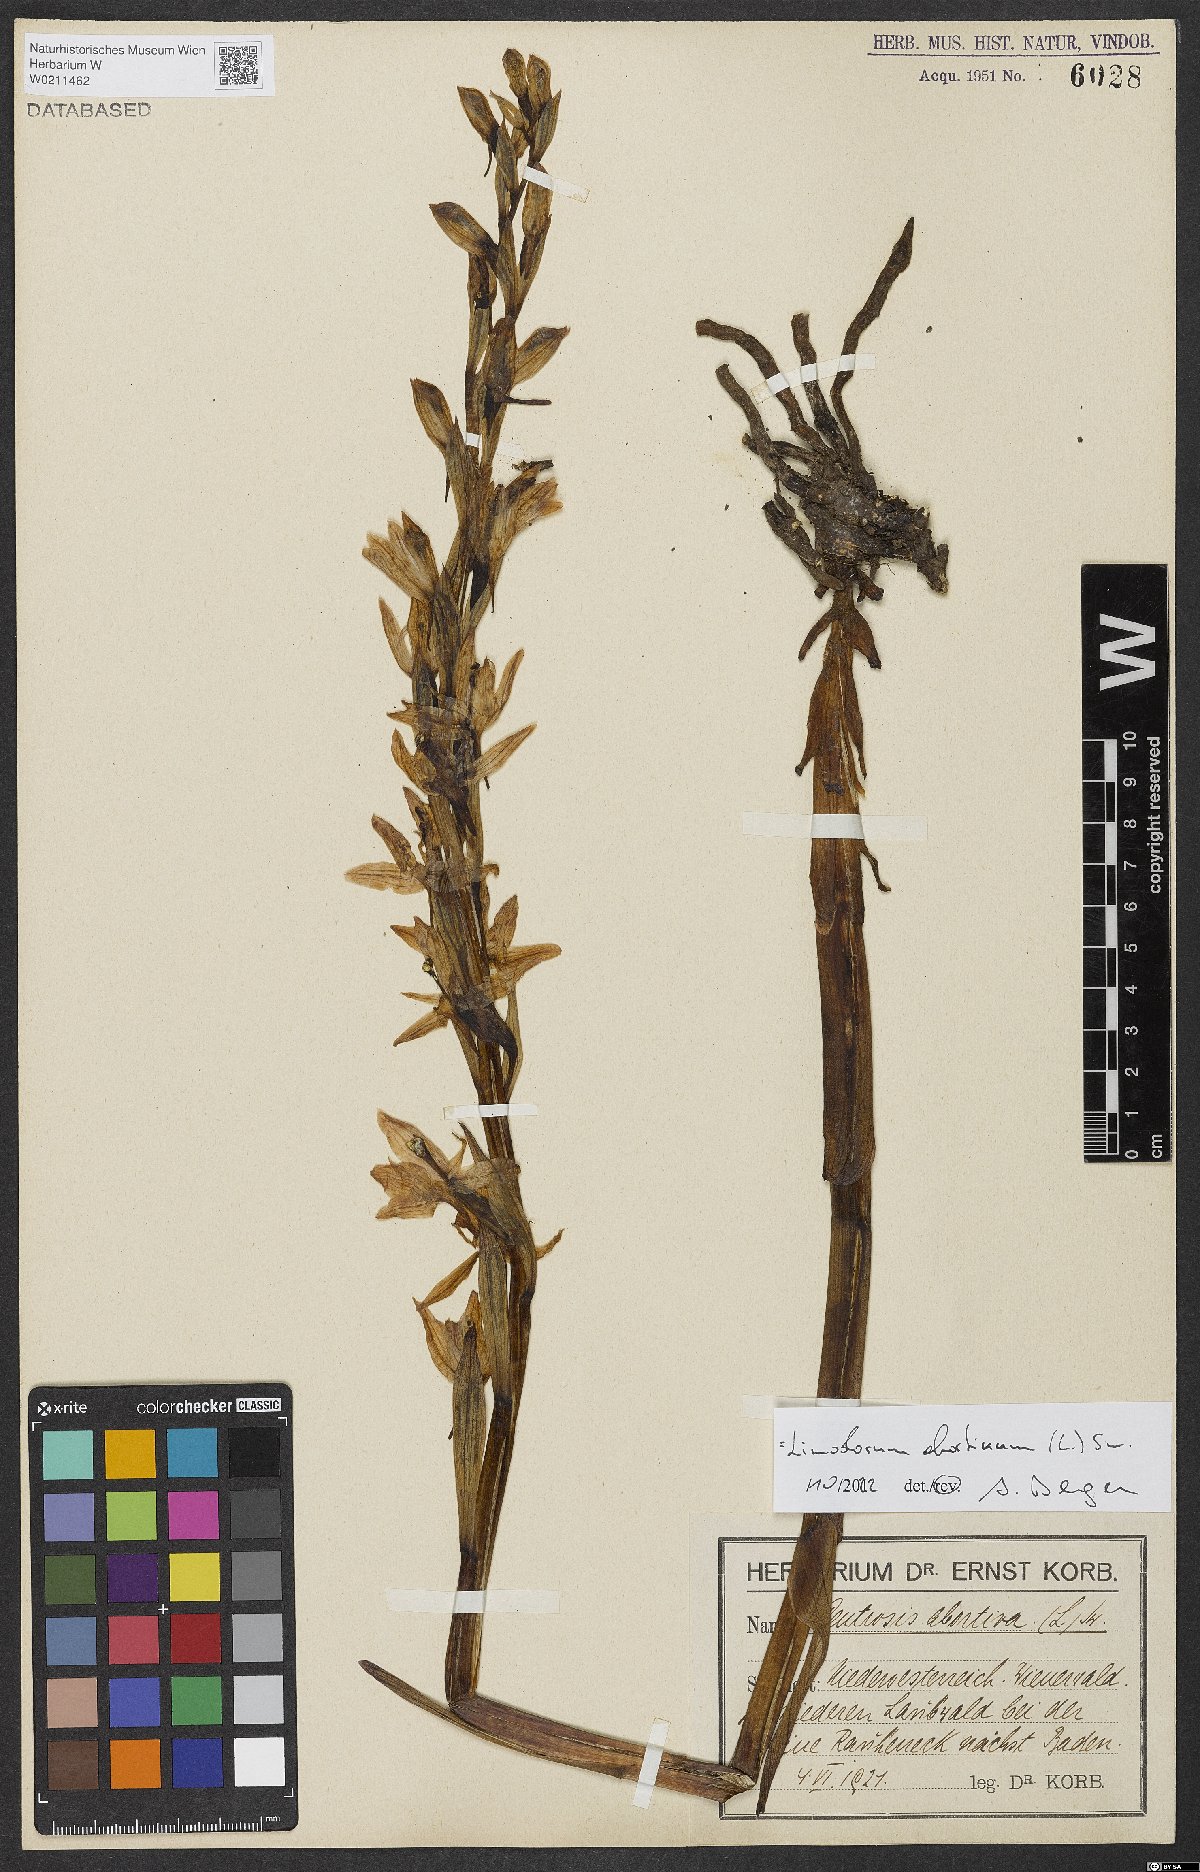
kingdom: Plantae
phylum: Tracheophyta
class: Liliopsida
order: Asparagales
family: Orchidaceae
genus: Limodorum
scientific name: Limodorum abortivum
